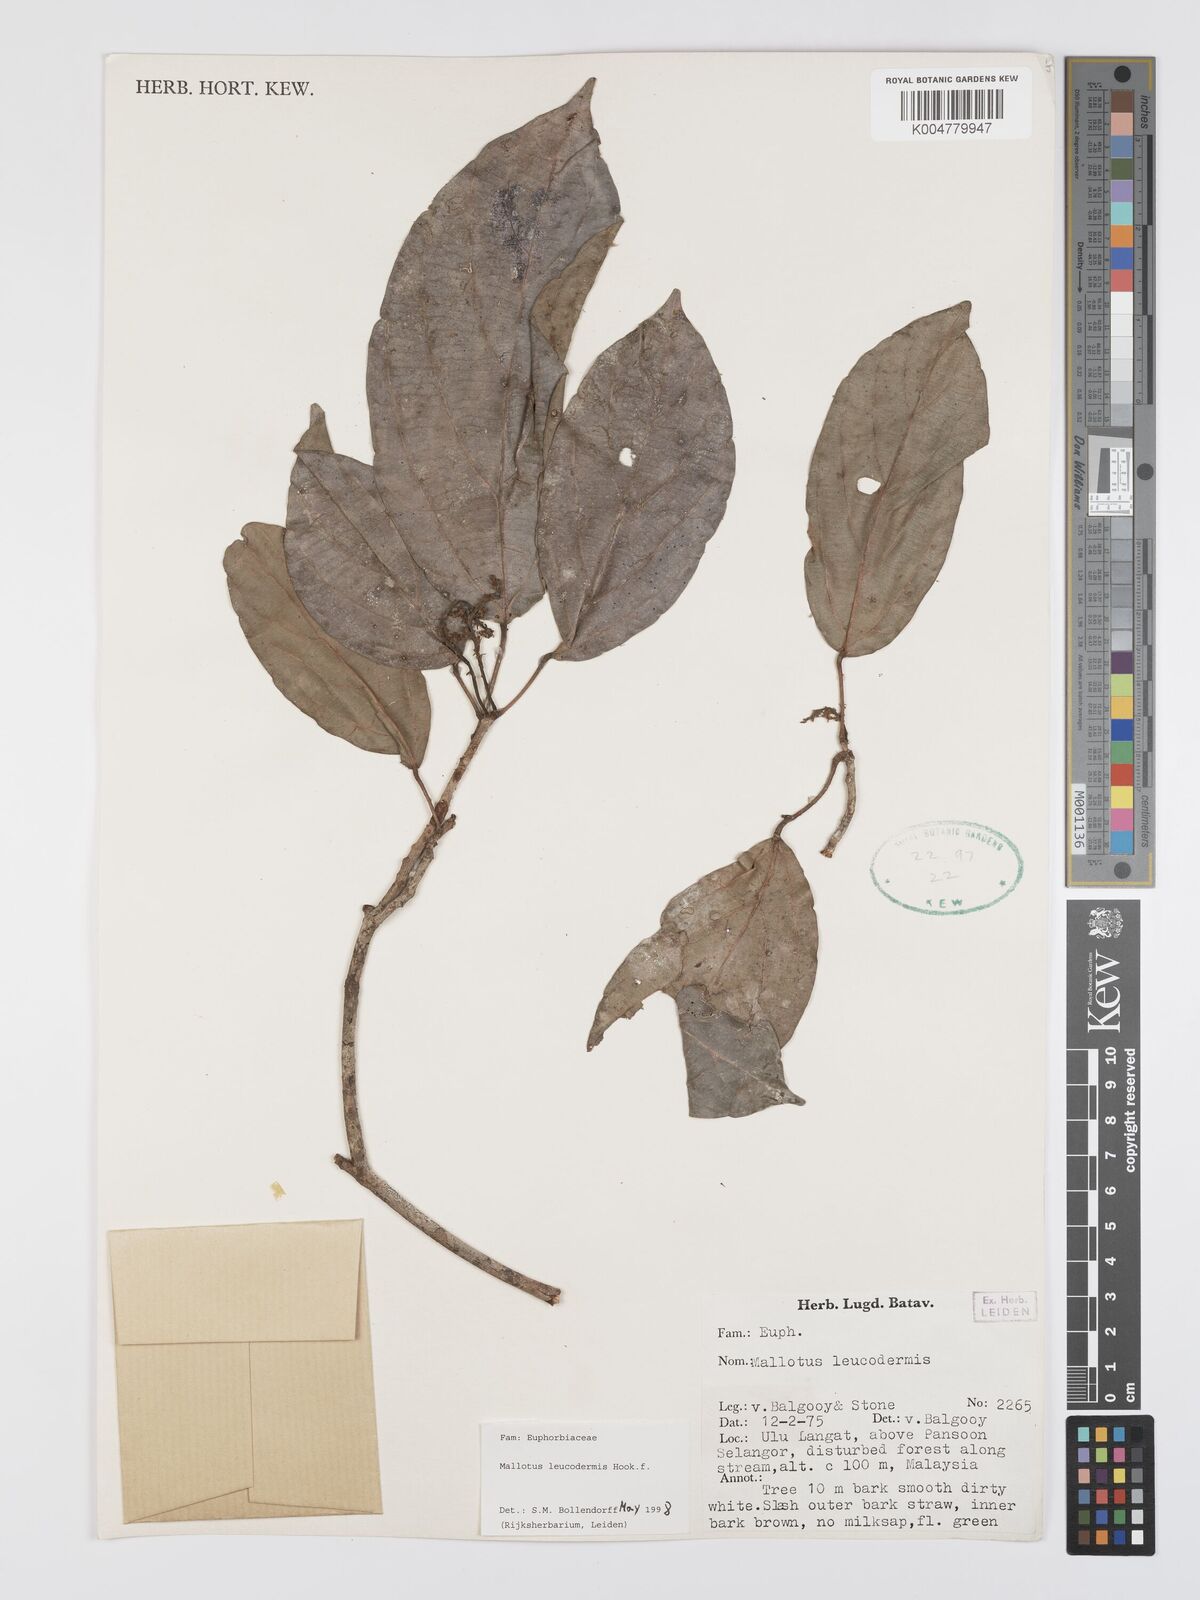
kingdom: Plantae
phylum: Tracheophyta
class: Magnoliopsida
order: Malpighiales
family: Euphorbiaceae
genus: Mallotus
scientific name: Mallotus leucodermis
